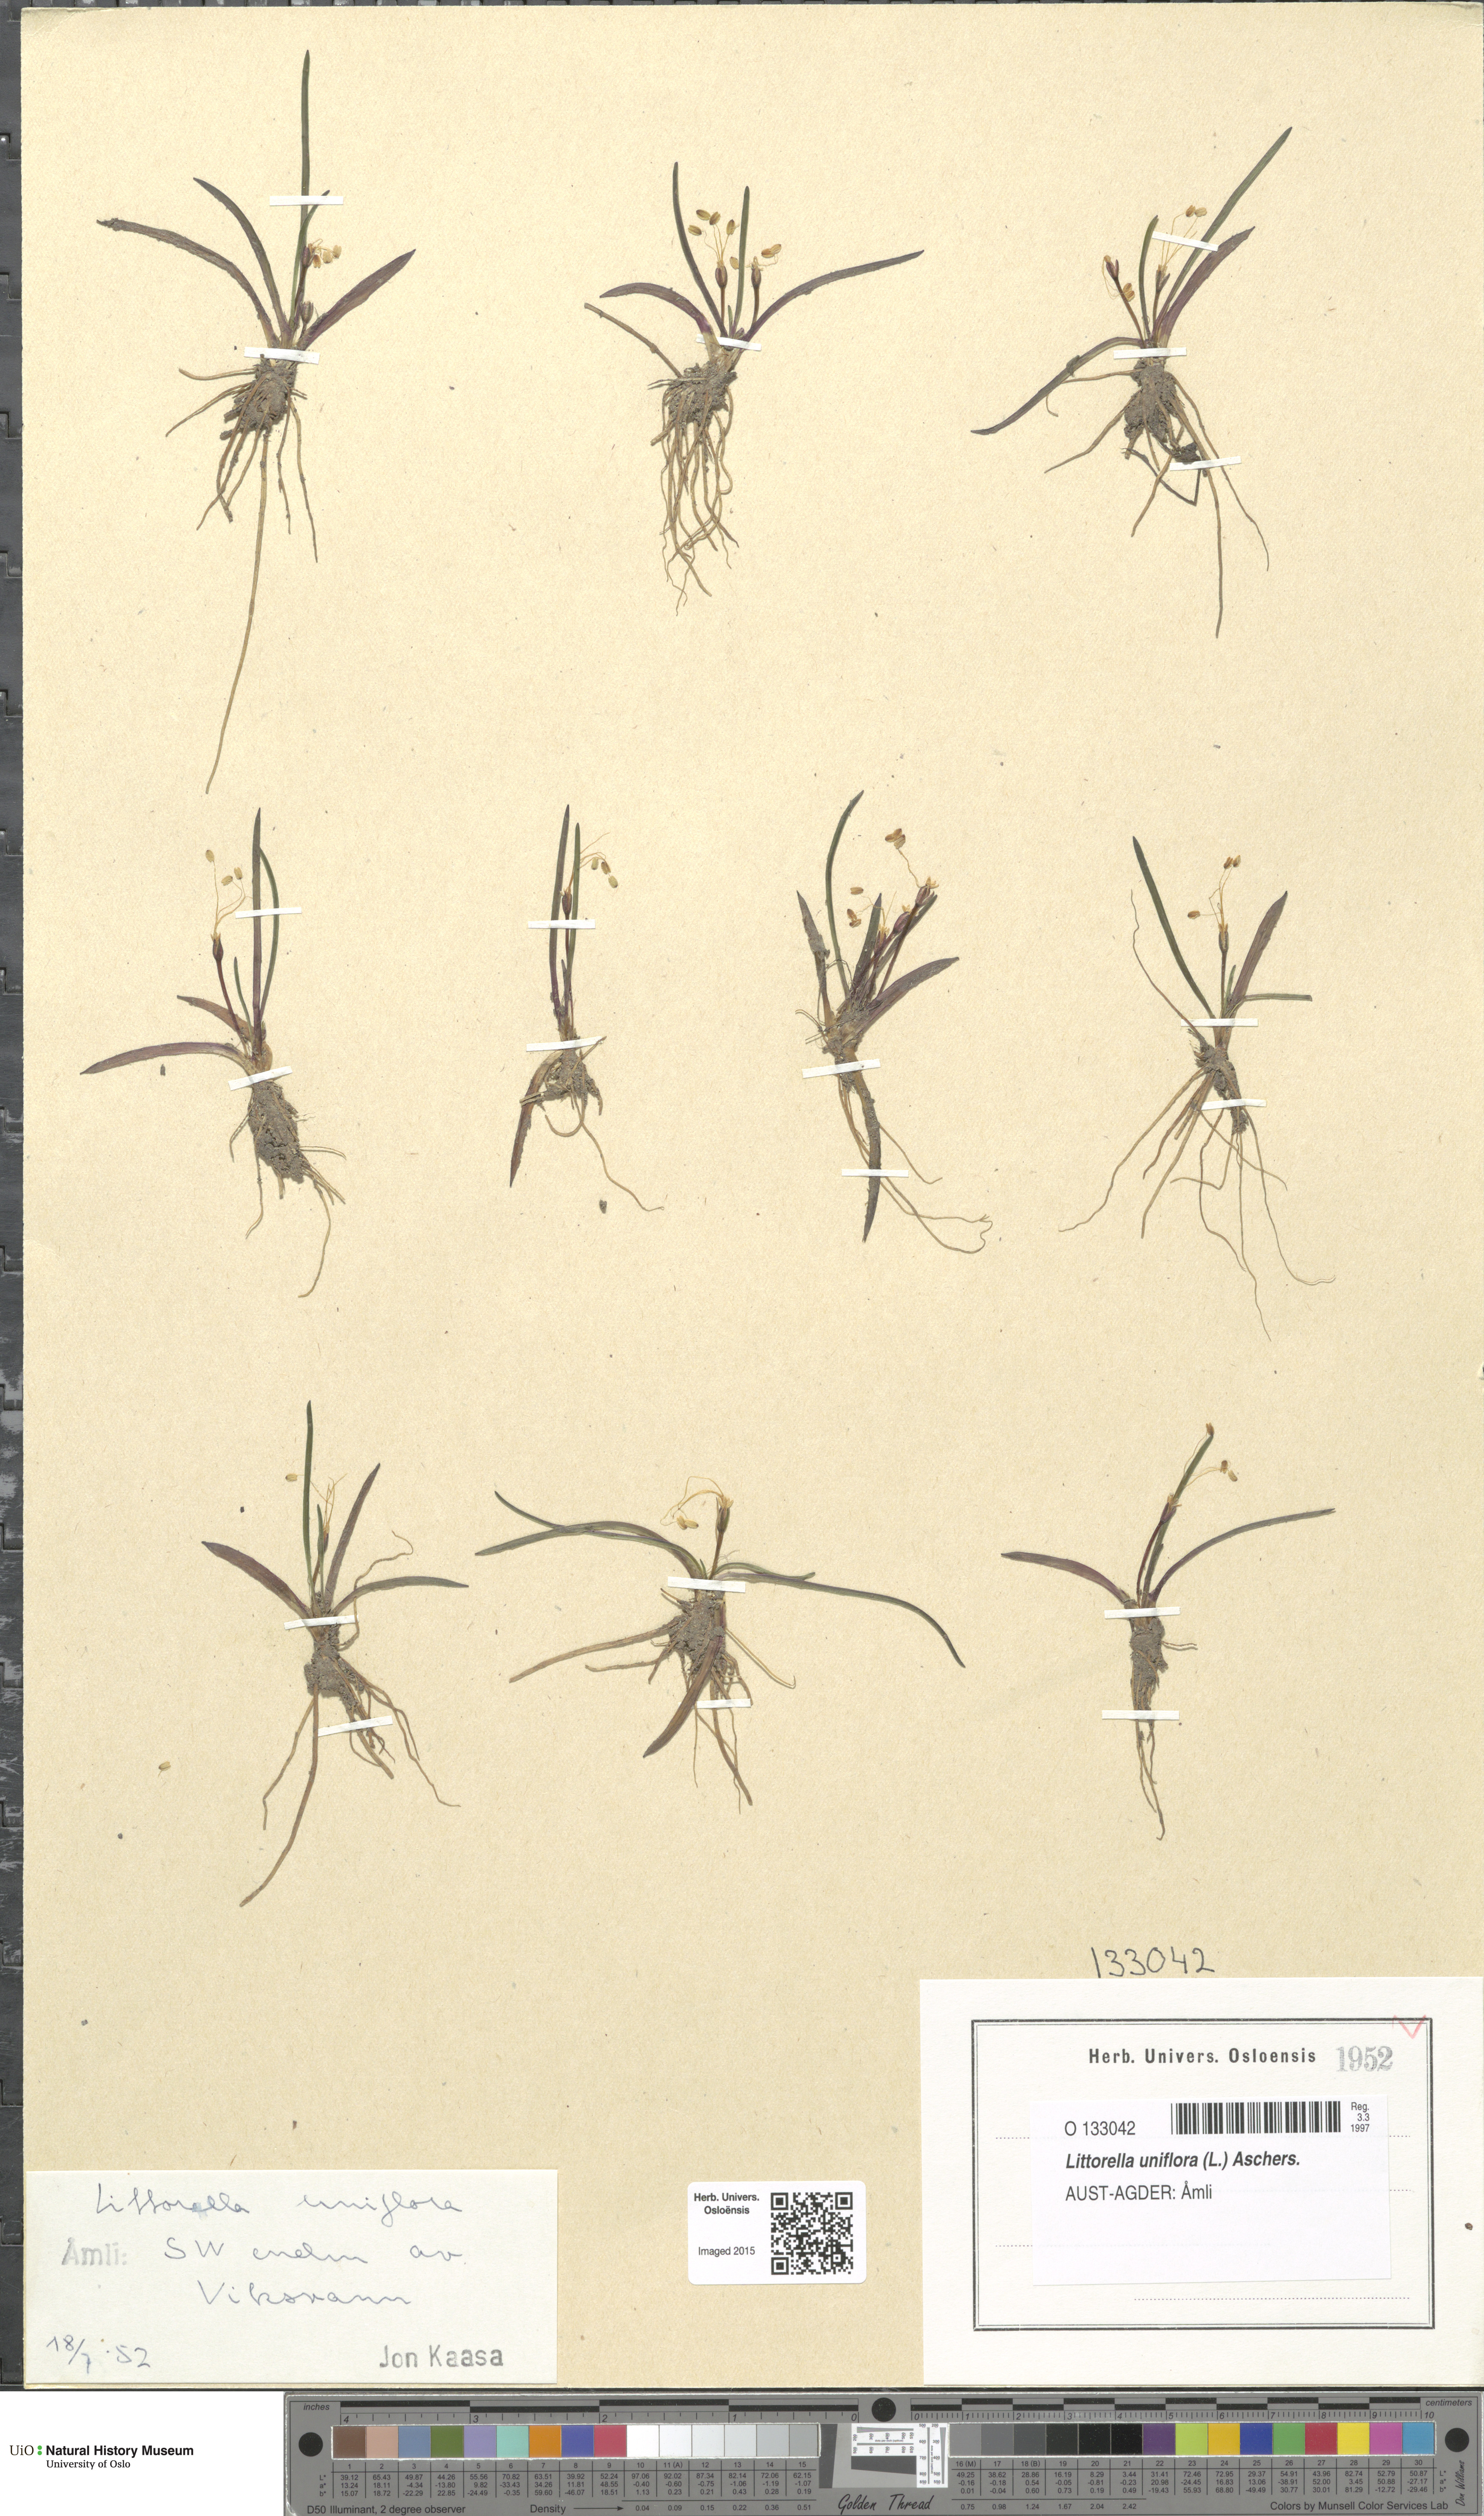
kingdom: Plantae
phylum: Tracheophyta
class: Magnoliopsida
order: Lamiales
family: Plantaginaceae
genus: Littorella
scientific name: Littorella uniflora
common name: Shoreweed
